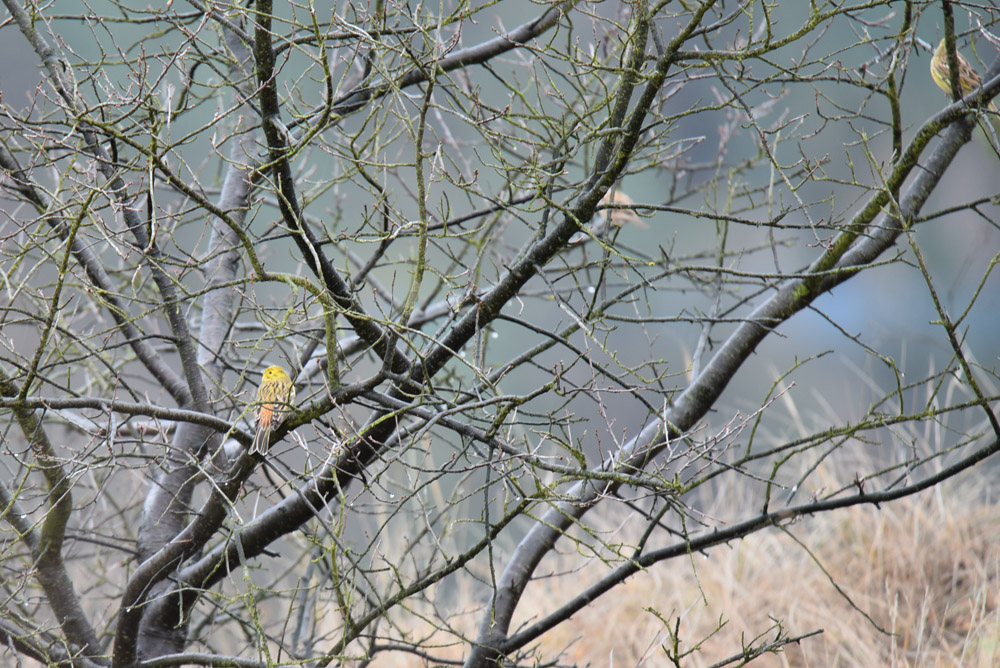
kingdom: Animalia
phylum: Chordata
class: Aves
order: Passeriformes
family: Emberizidae
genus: Emberiza
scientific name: Emberiza citrinella
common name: Yellowhammer
